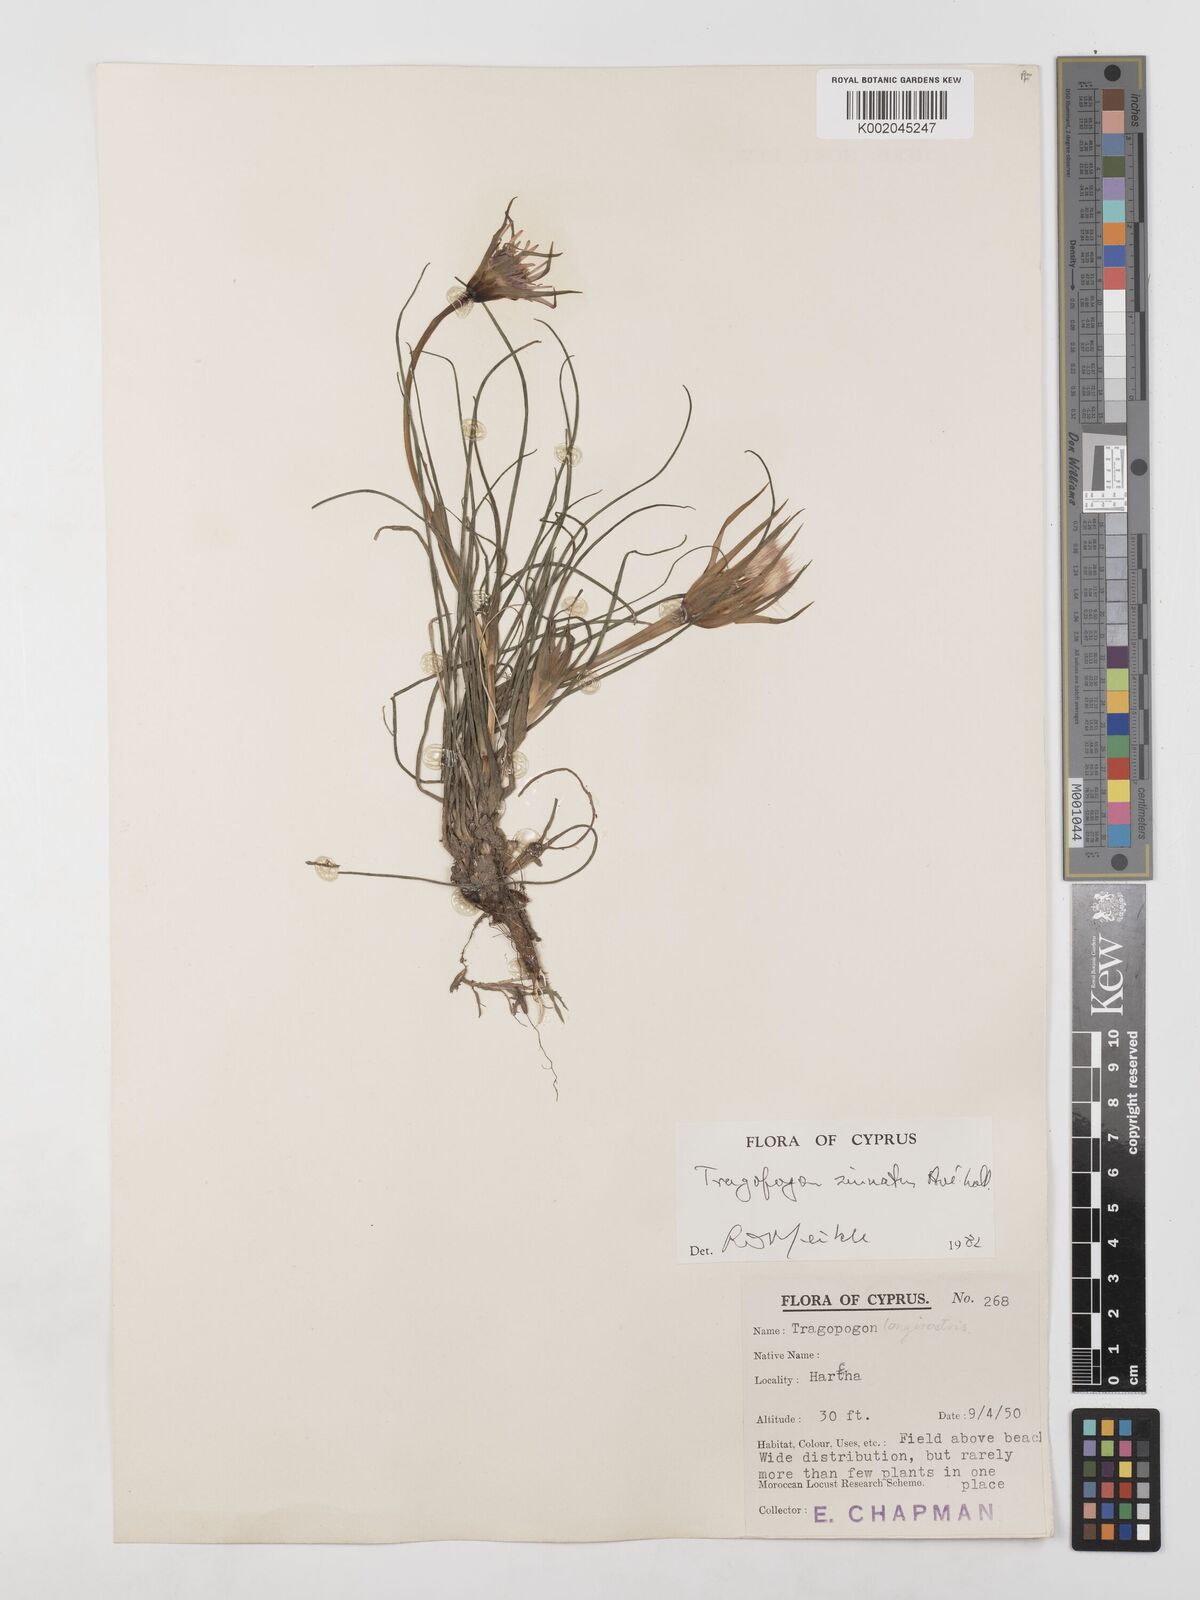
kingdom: Plantae
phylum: Tracheophyta
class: Magnoliopsida
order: Asterales
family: Asteraceae
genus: Tragopogon
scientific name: Tragopogon coelesyriacus
